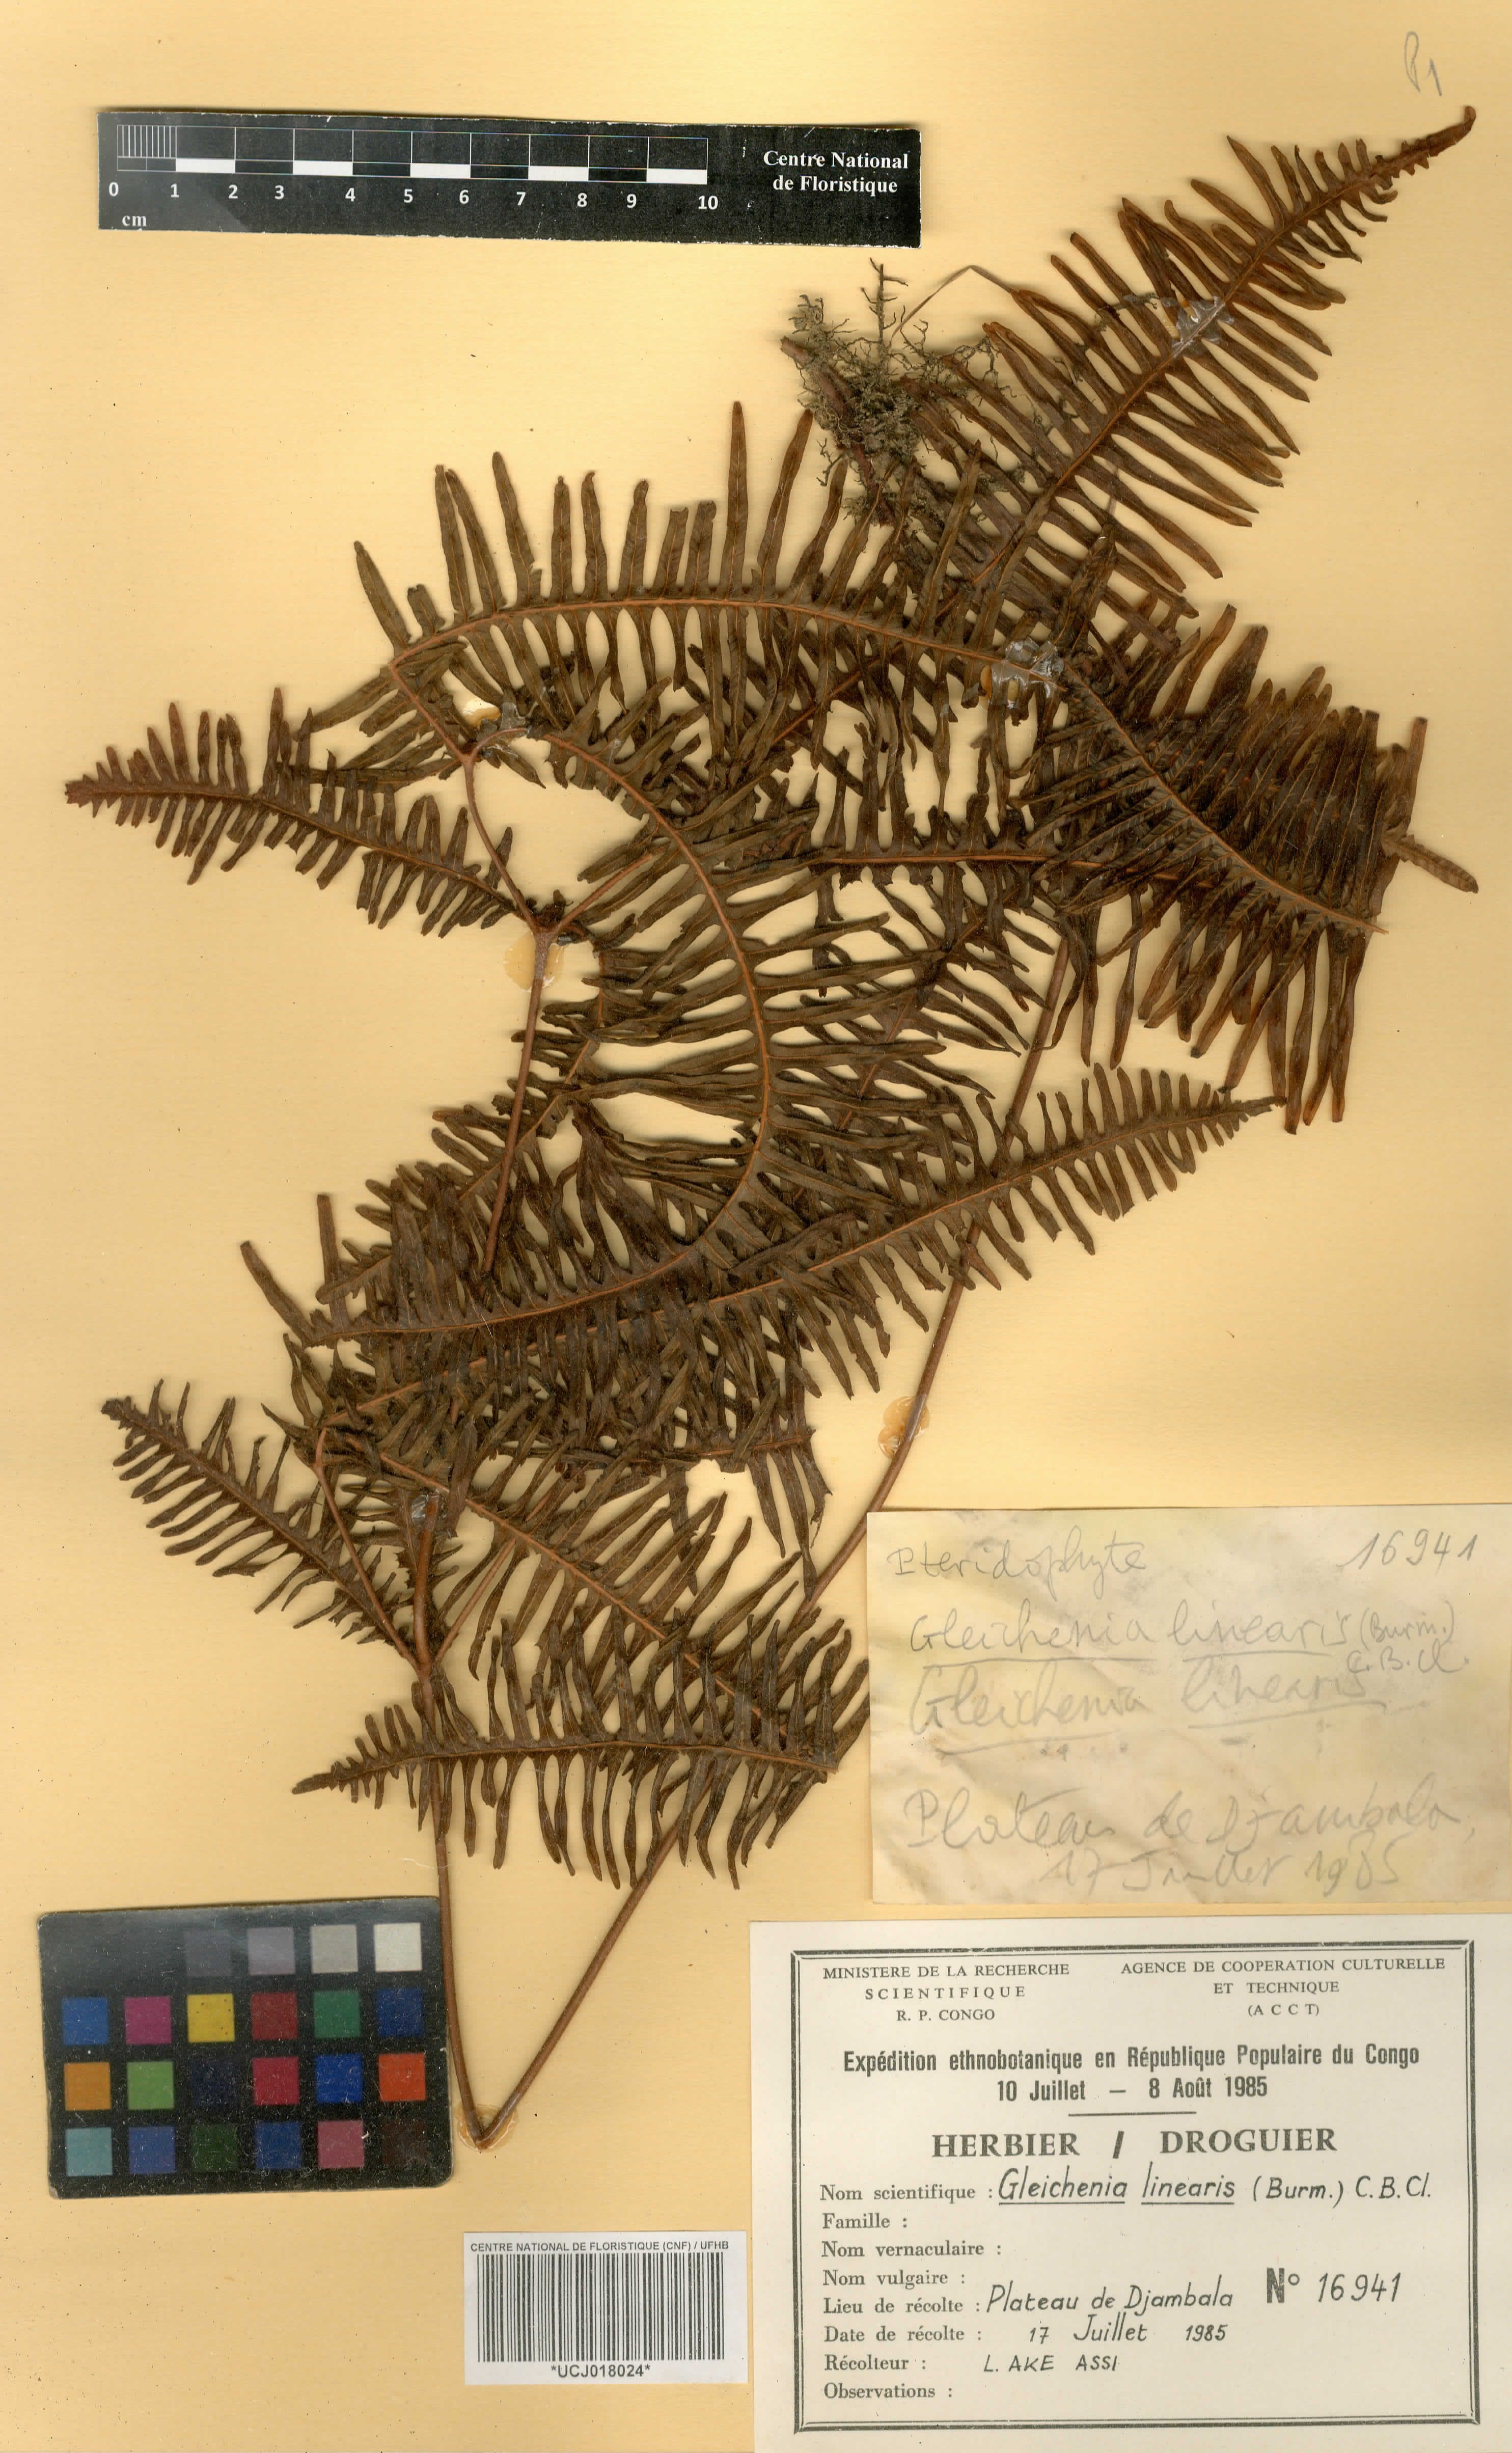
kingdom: Plantae
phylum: Tracheophyta
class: Polypodiopsida
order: Gleicheniales
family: Gleicheniaceae
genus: Dicranopteris
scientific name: Dicranopteris linearis
